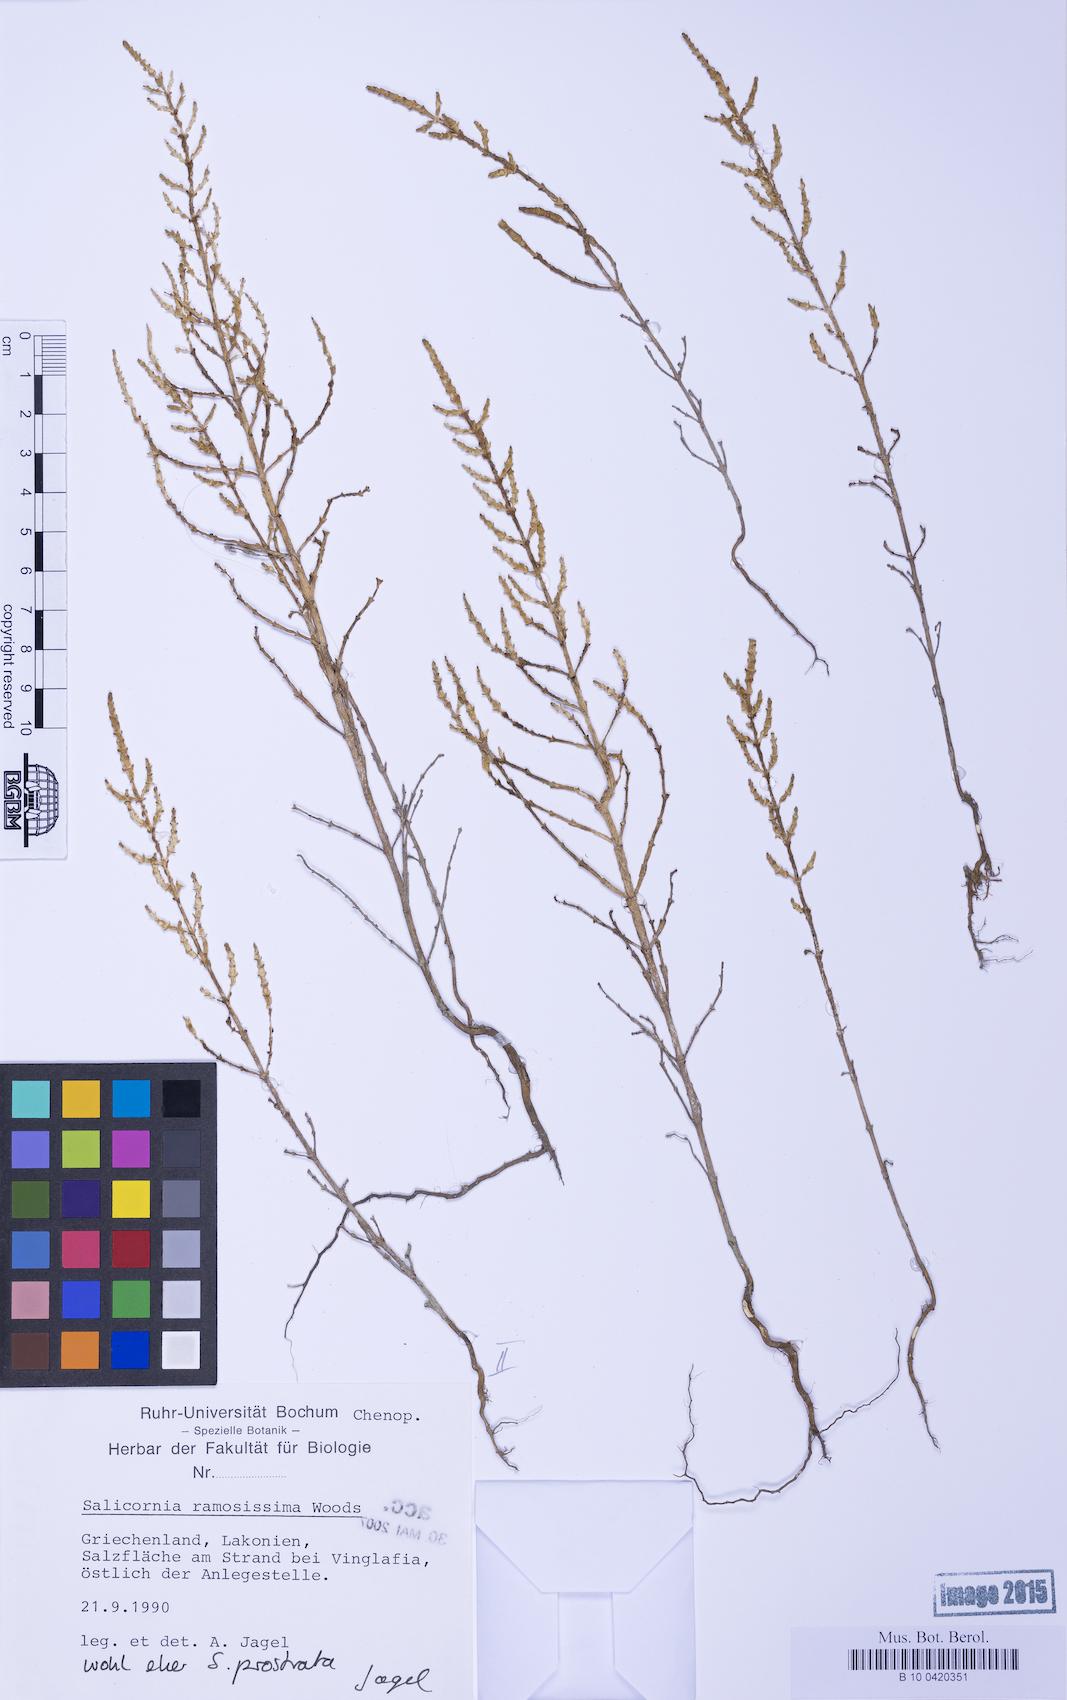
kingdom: Plantae
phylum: Tracheophyta
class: Magnoliopsida
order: Caryophyllales
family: Amaranthaceae
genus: Salicornia
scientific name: Salicornia perennans
